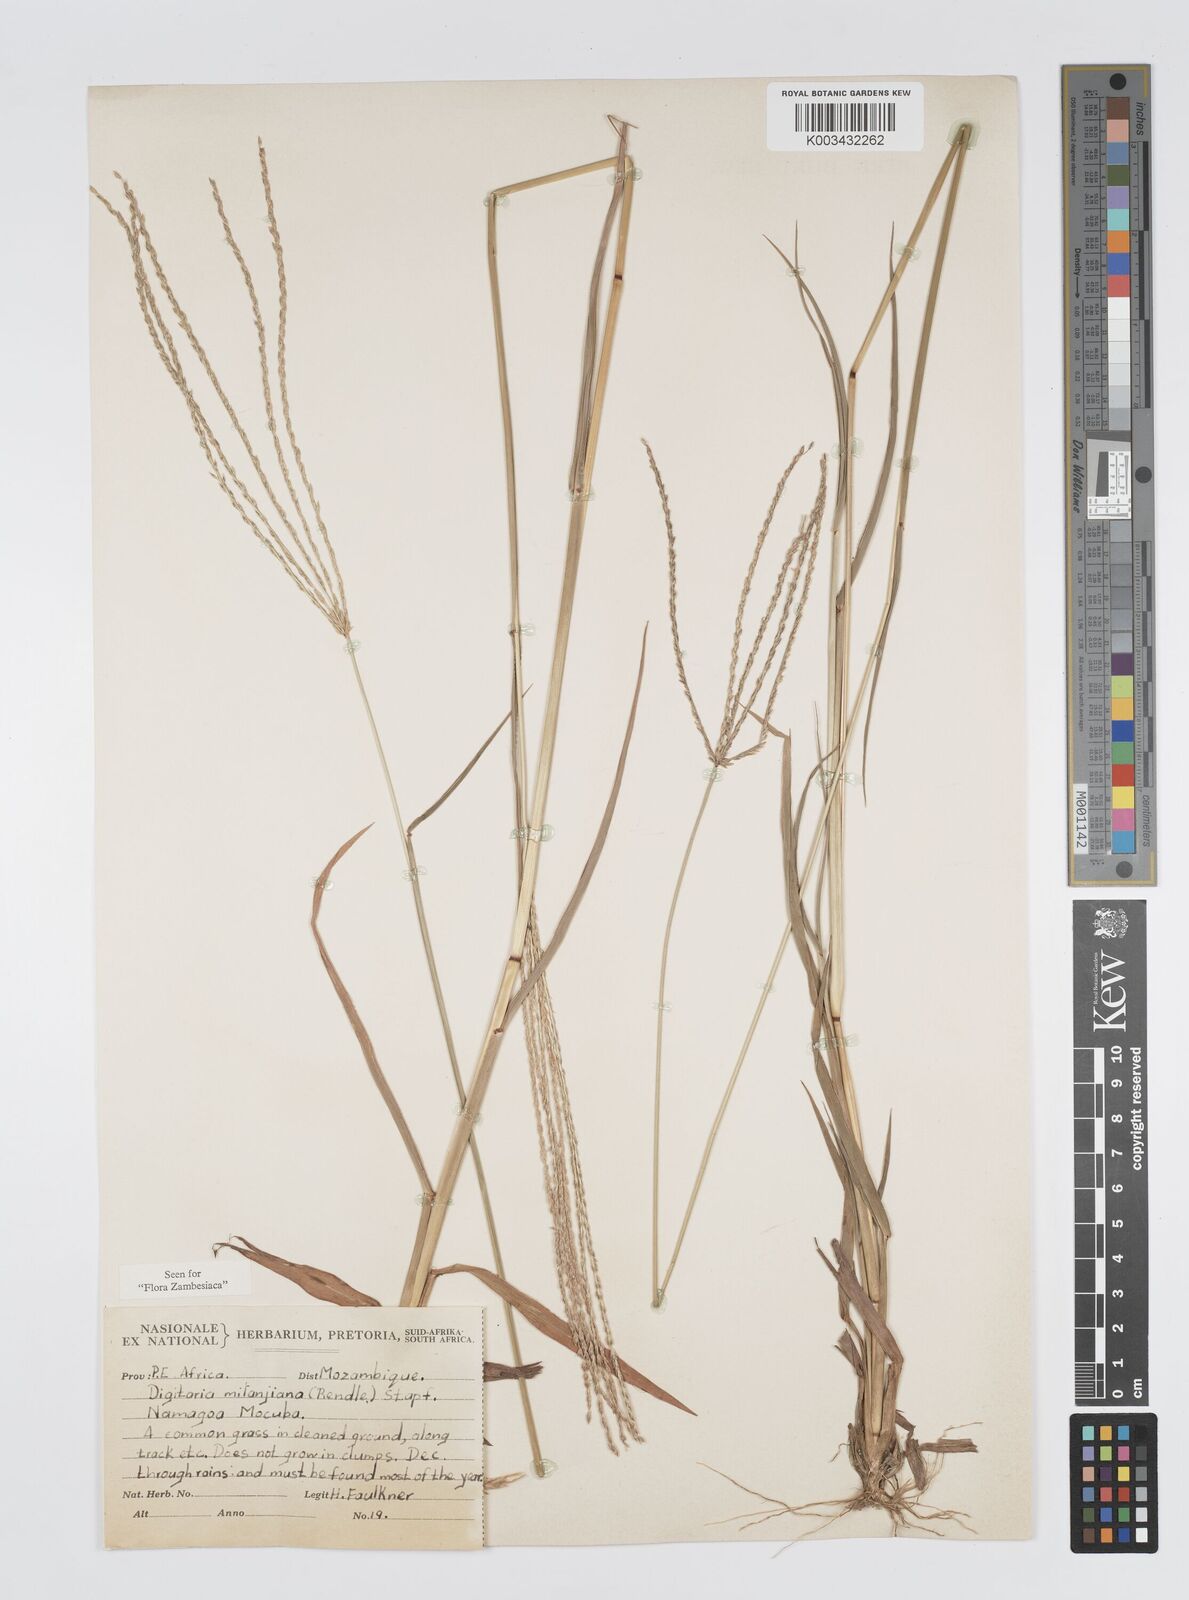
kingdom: Plantae
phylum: Tracheophyta
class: Liliopsida
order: Poales
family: Poaceae
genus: Digitaria
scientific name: Digitaria milanjiana
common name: Madagascar crabgrass
